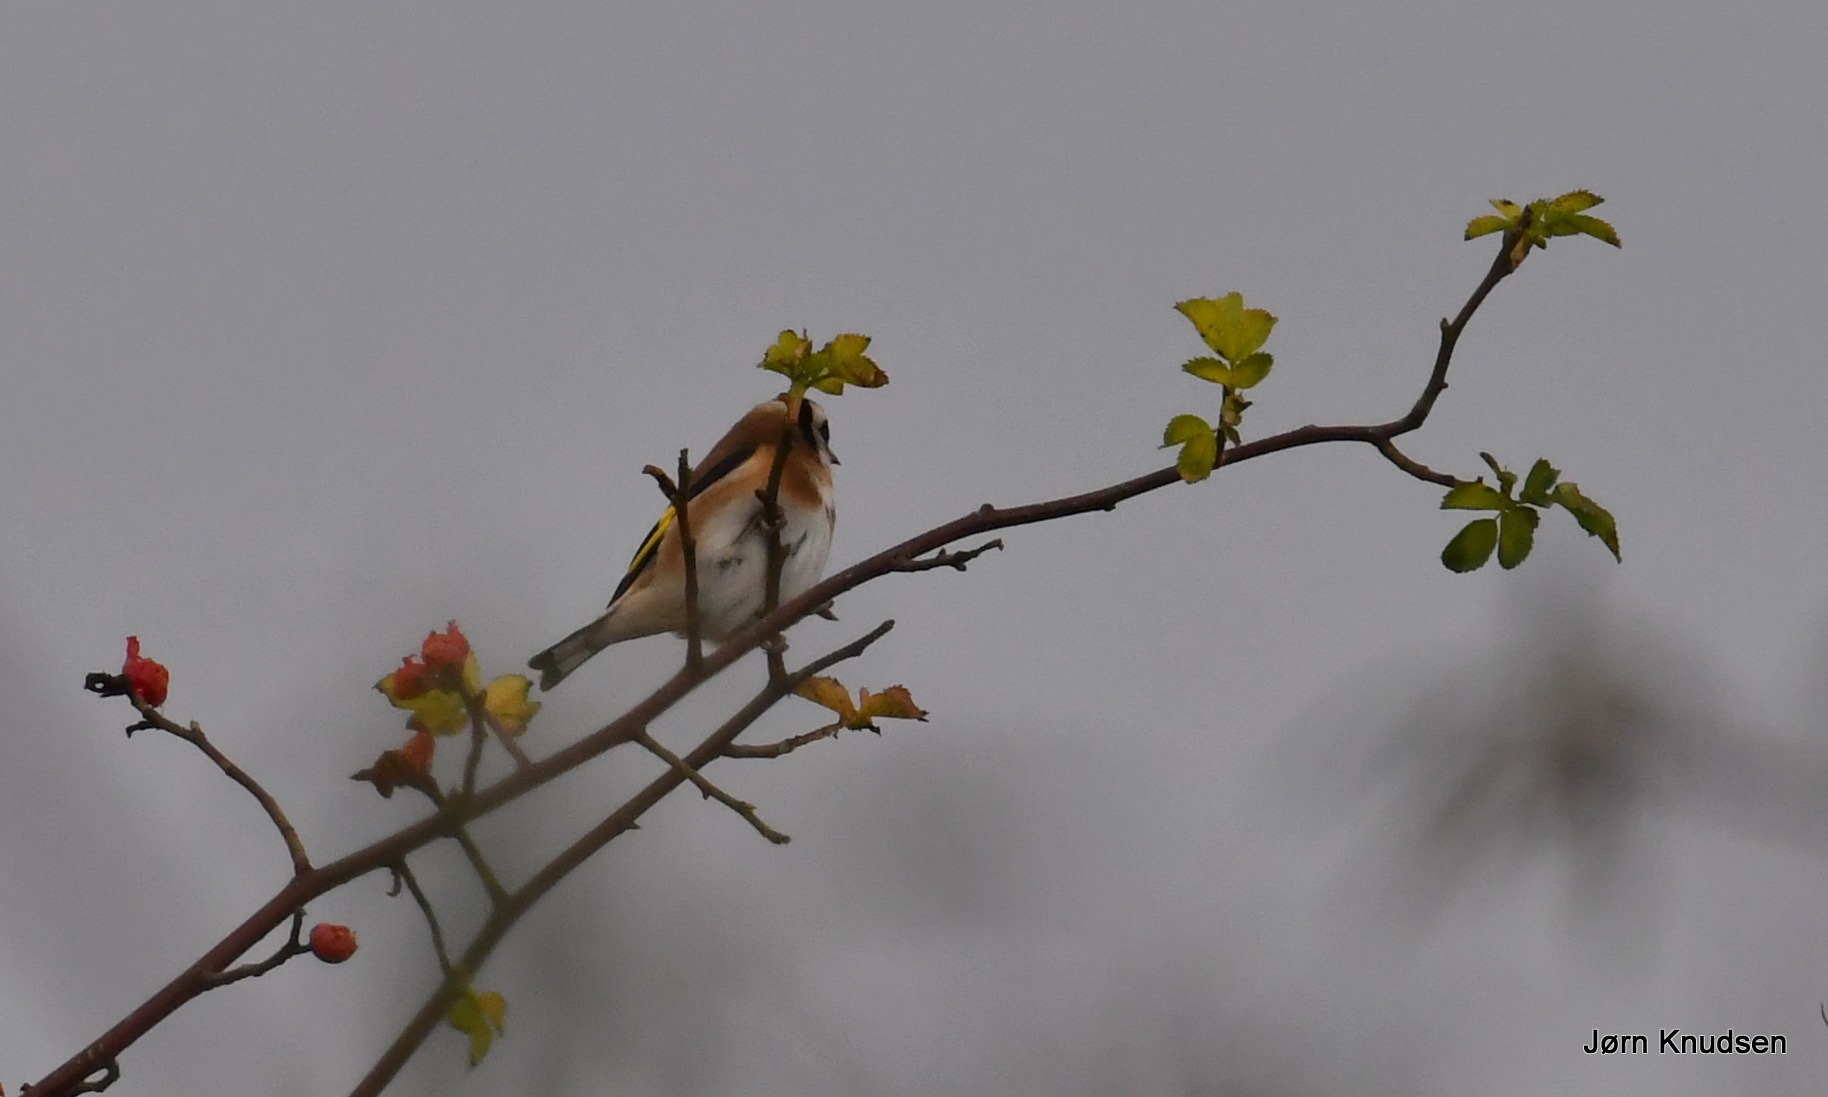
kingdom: Animalia
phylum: Chordata
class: Aves
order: Passeriformes
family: Fringillidae
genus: Carduelis
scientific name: Carduelis carduelis
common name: Stillits
